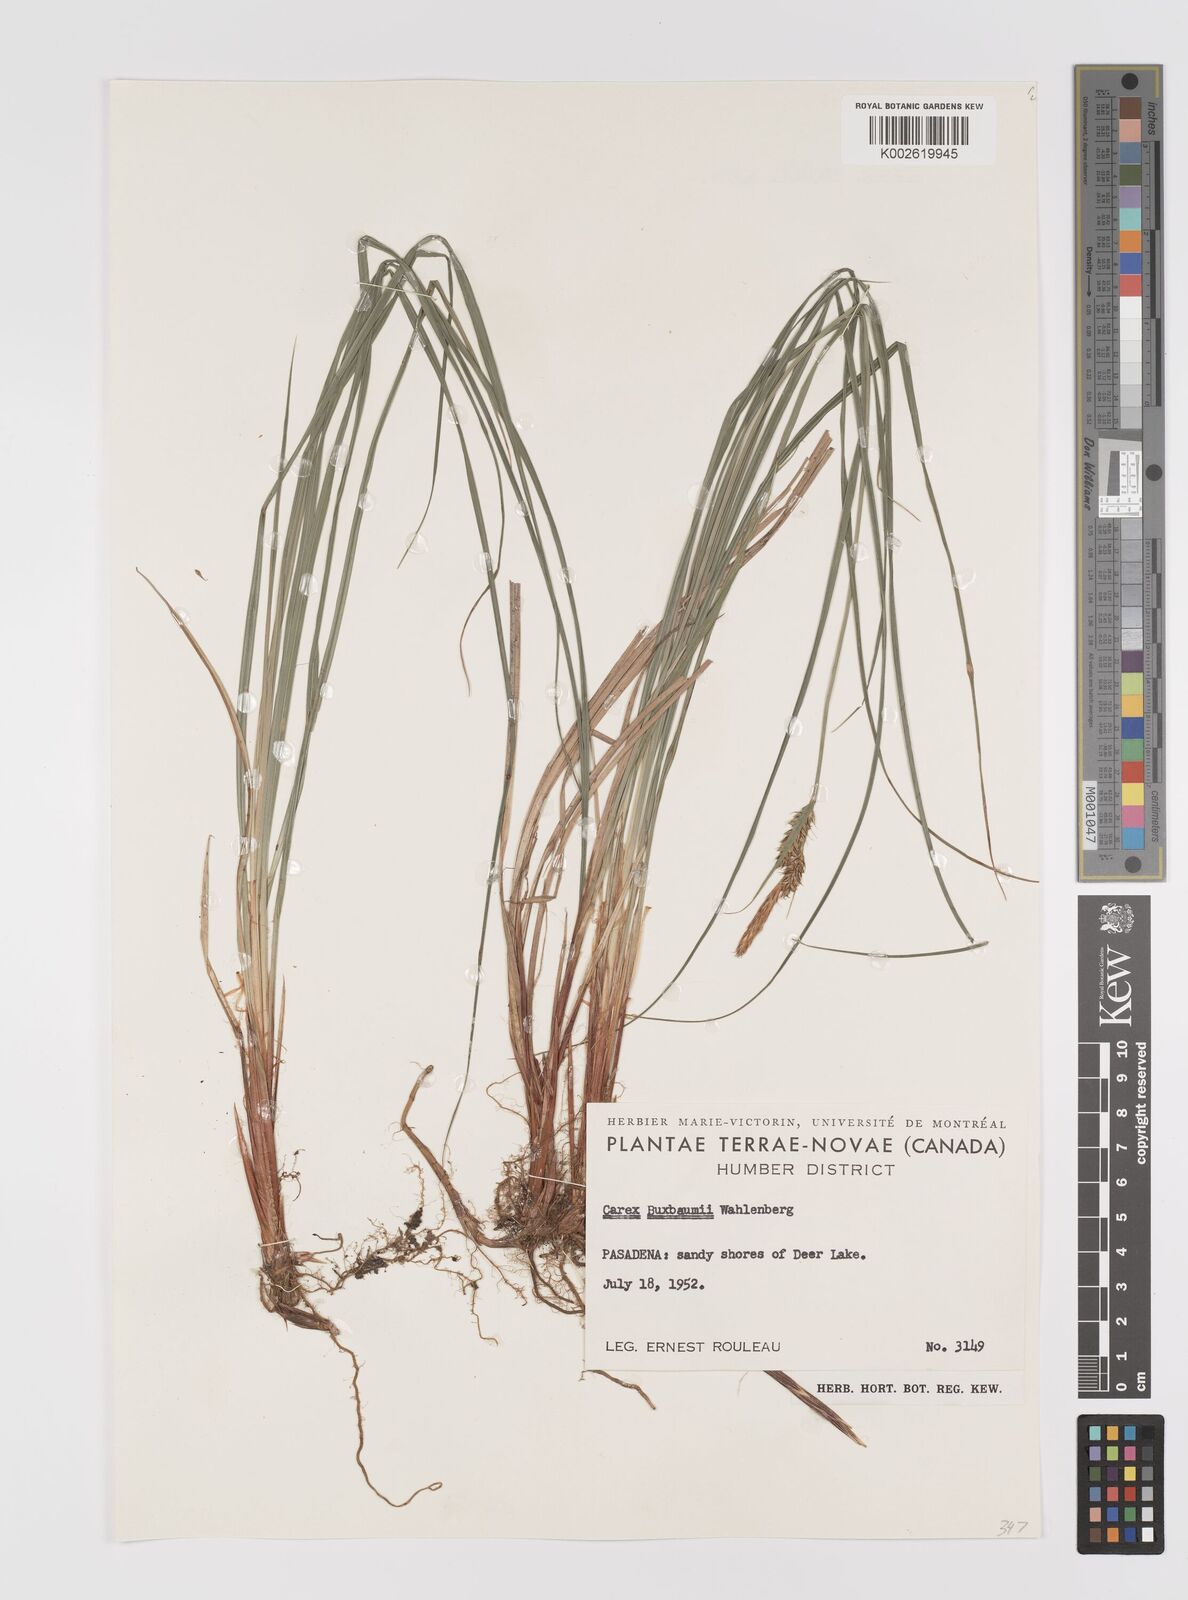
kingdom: Plantae
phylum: Tracheophyta
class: Liliopsida
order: Poales
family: Cyperaceae
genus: Carex
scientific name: Carex capillaris
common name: Hair sedge
